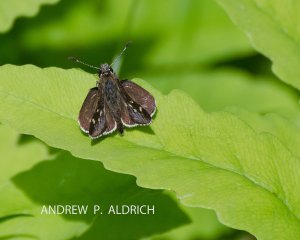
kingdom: Animalia
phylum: Arthropoda
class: Insecta
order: Lepidoptera
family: Hesperiidae
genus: Mastor
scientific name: Mastor hegon
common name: Pepper and Salt Skipper
